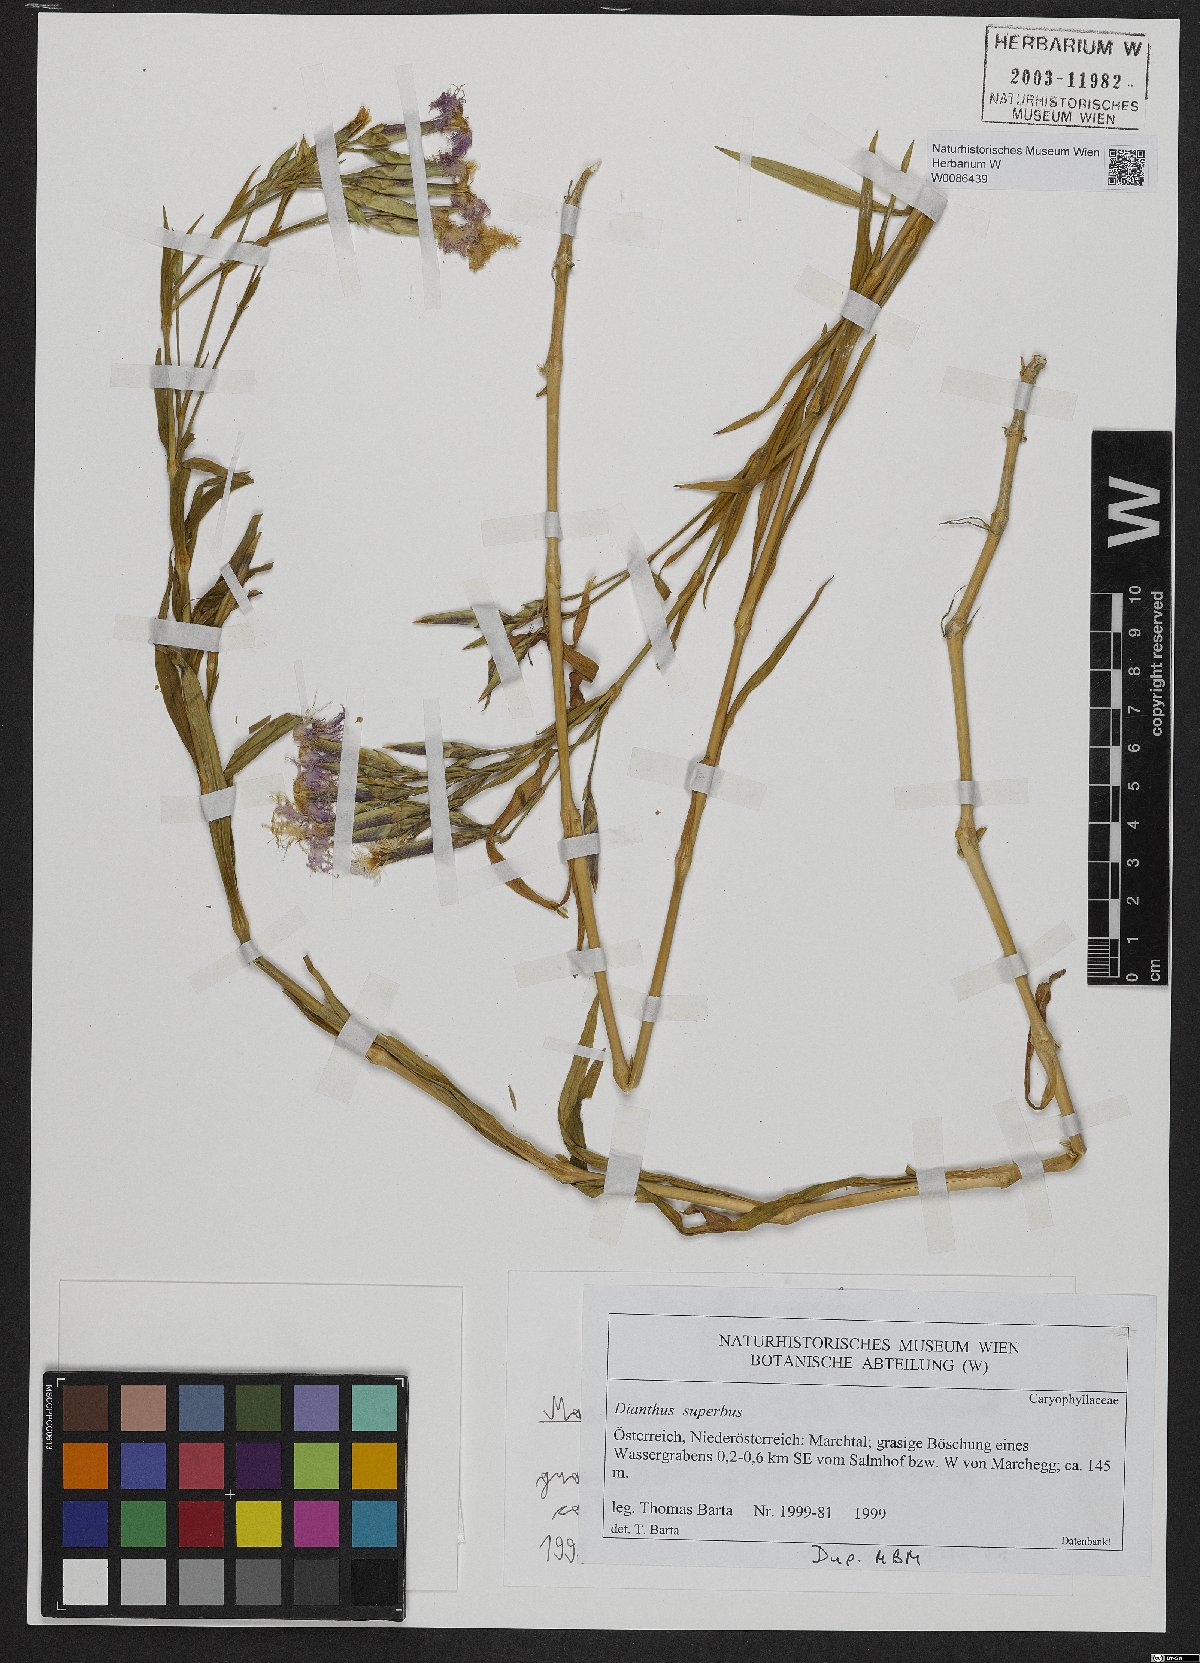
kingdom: Plantae
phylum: Tracheophyta
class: Magnoliopsida
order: Caryophyllales
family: Caryophyllaceae
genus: Dianthus
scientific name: Dianthus superbus
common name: Fringed pink
